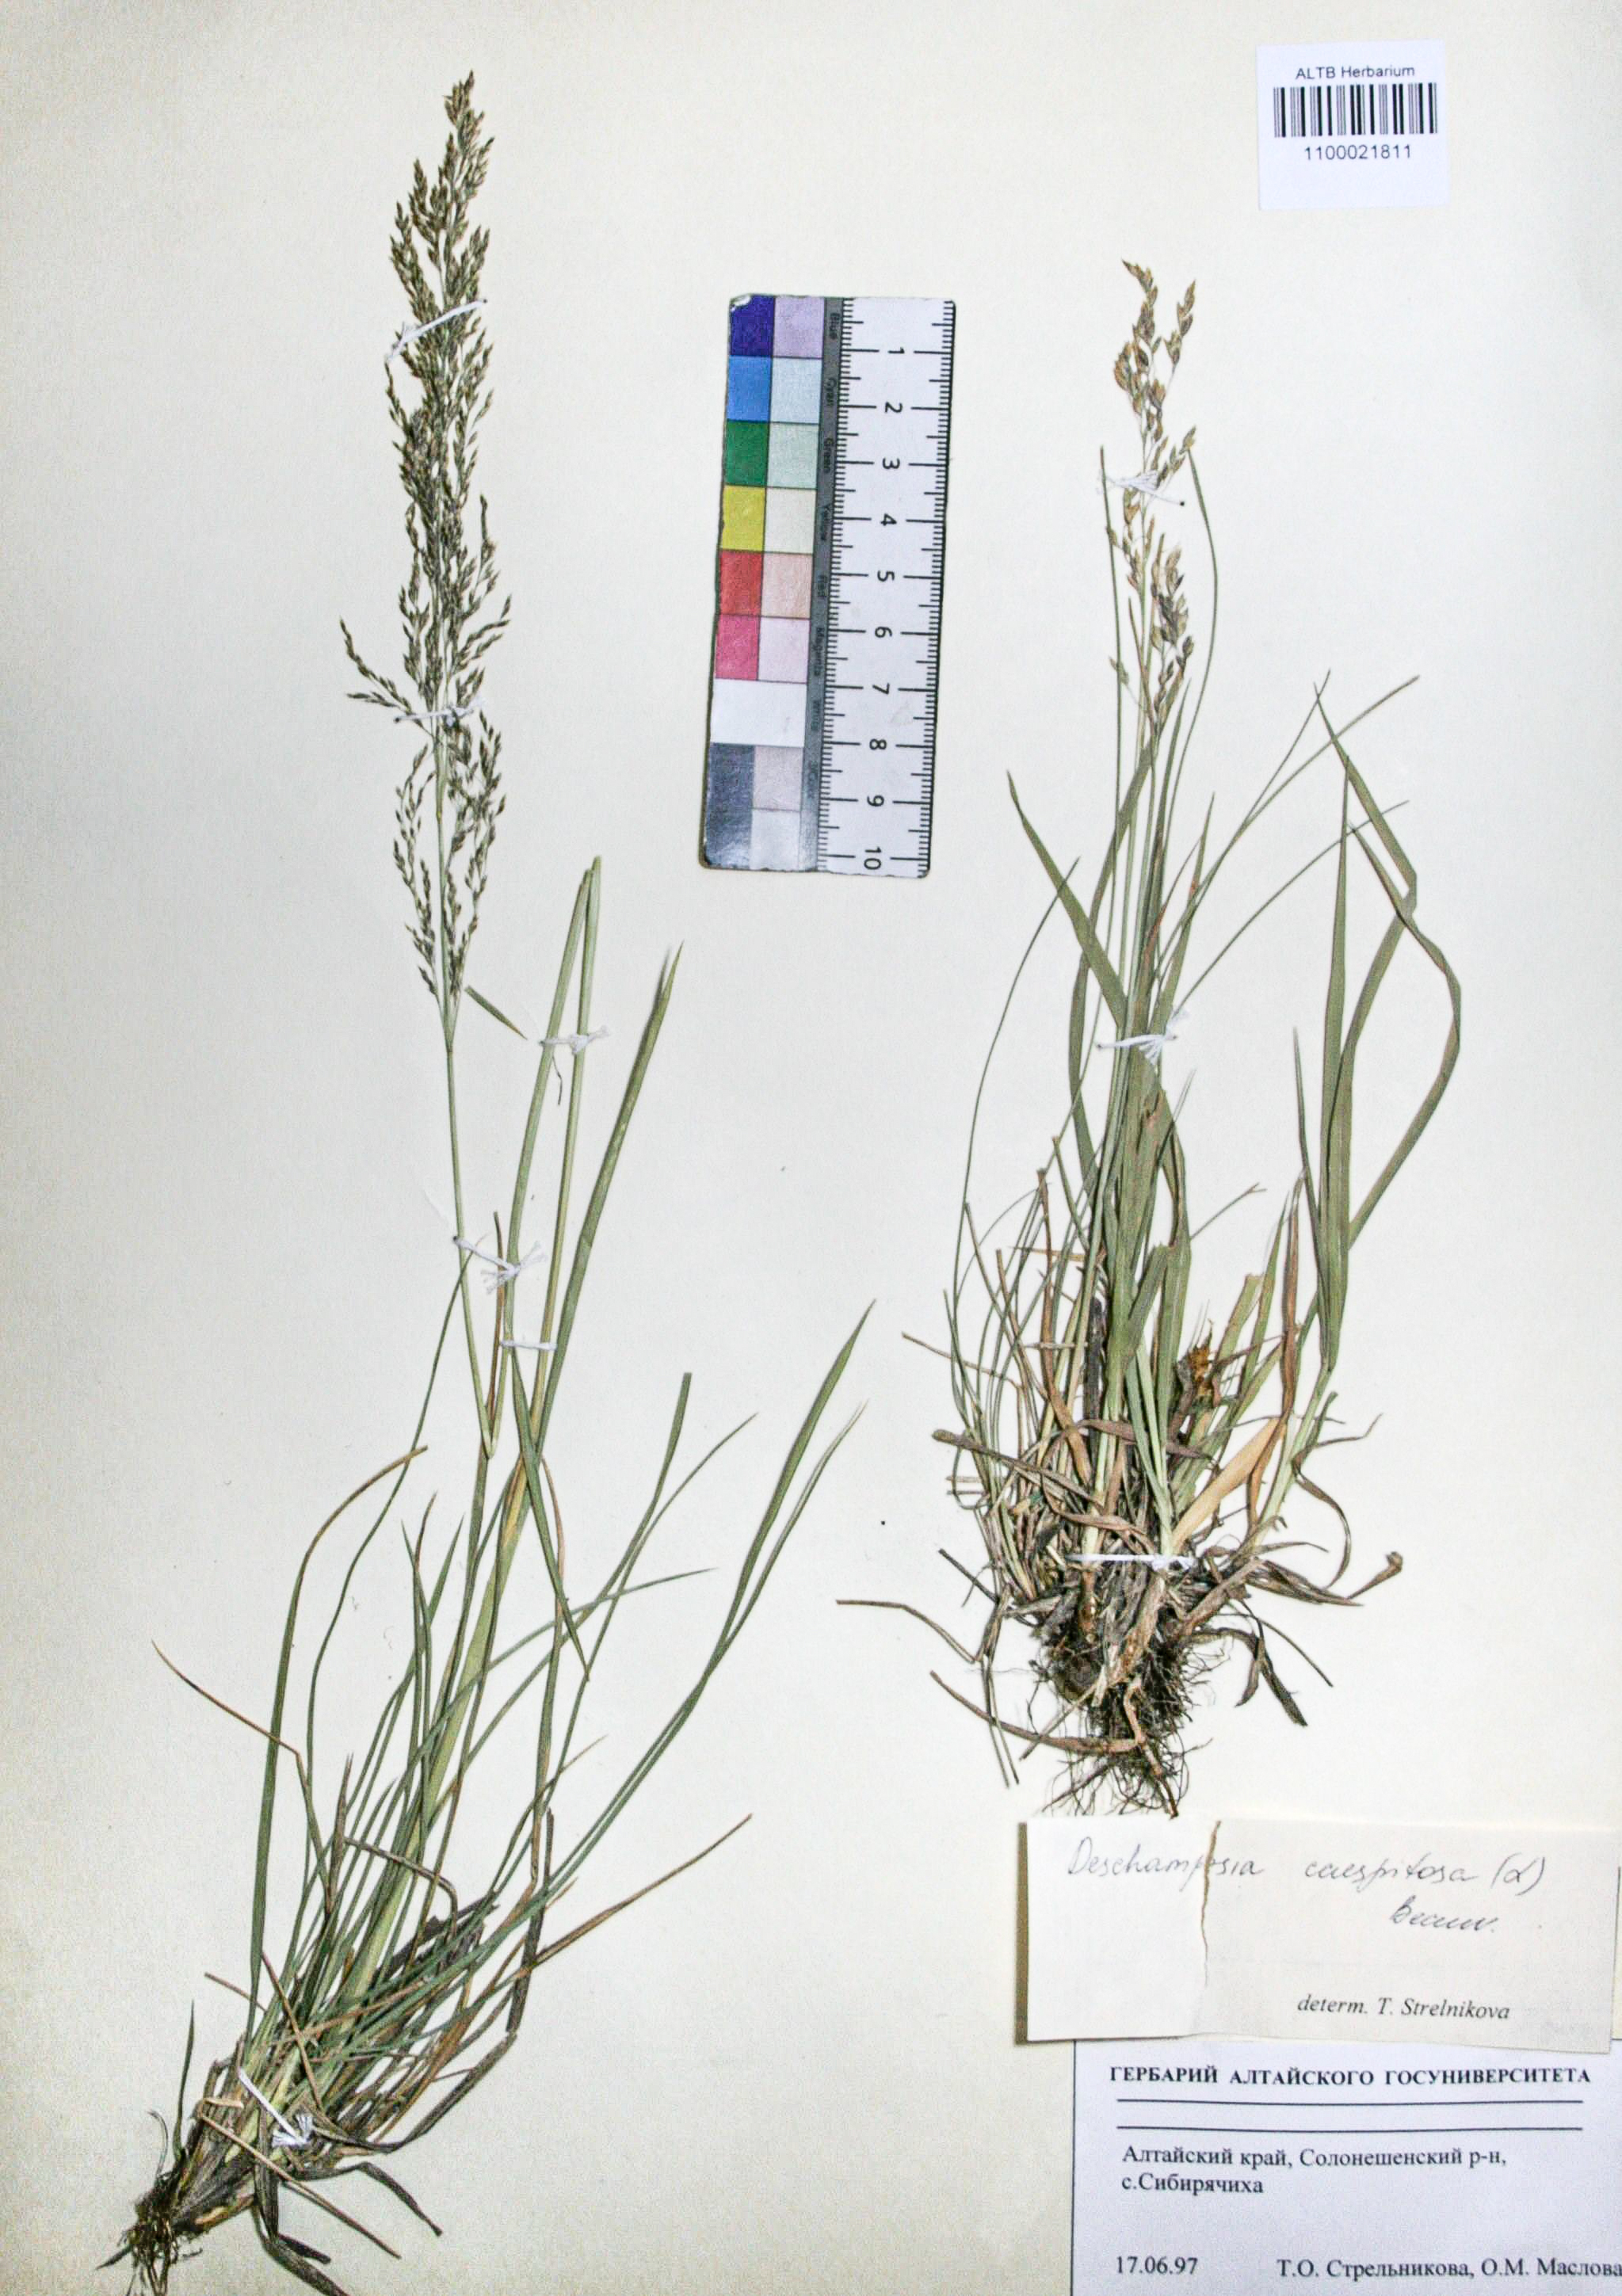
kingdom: Plantae
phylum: Tracheophyta
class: Liliopsida
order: Poales
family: Poaceae
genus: Deschampsia
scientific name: Deschampsia cespitosa
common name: Tufted hair-grass
